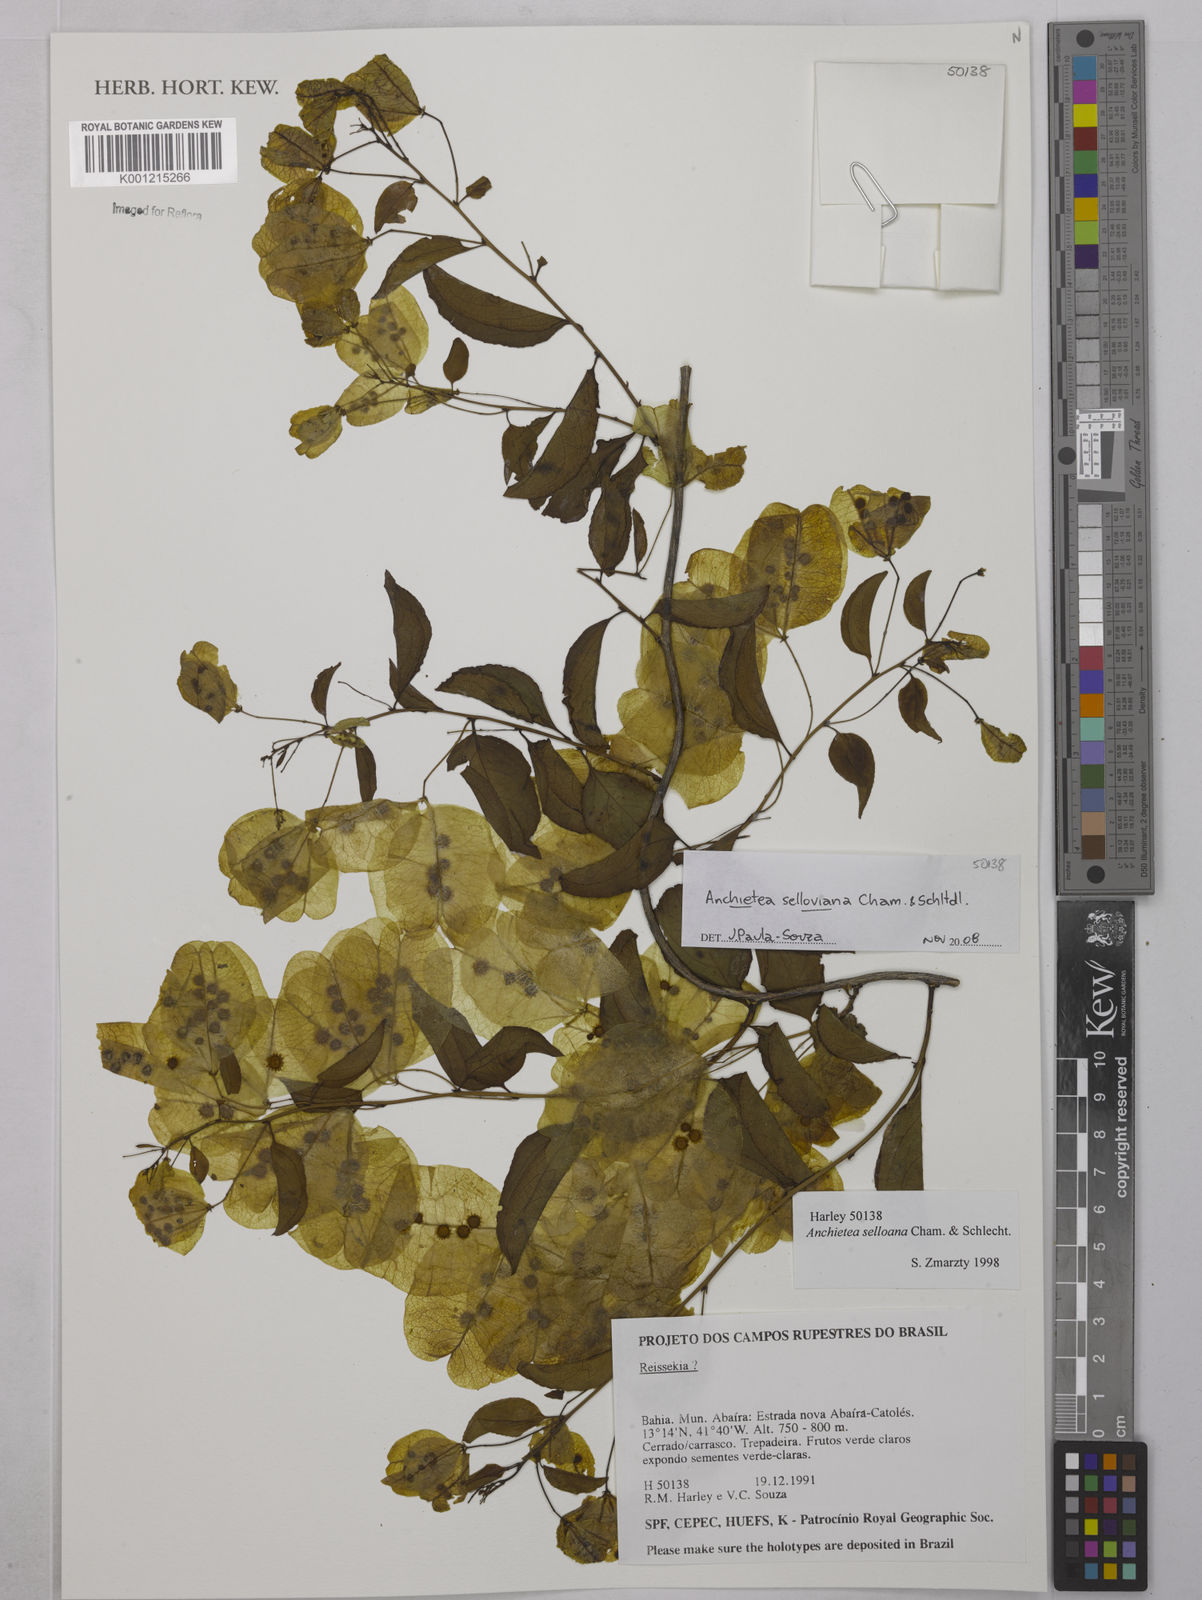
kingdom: Plantae
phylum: Tracheophyta
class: Magnoliopsida
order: Malpighiales
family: Violaceae
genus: Anchietea
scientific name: Anchietea sellowiana
